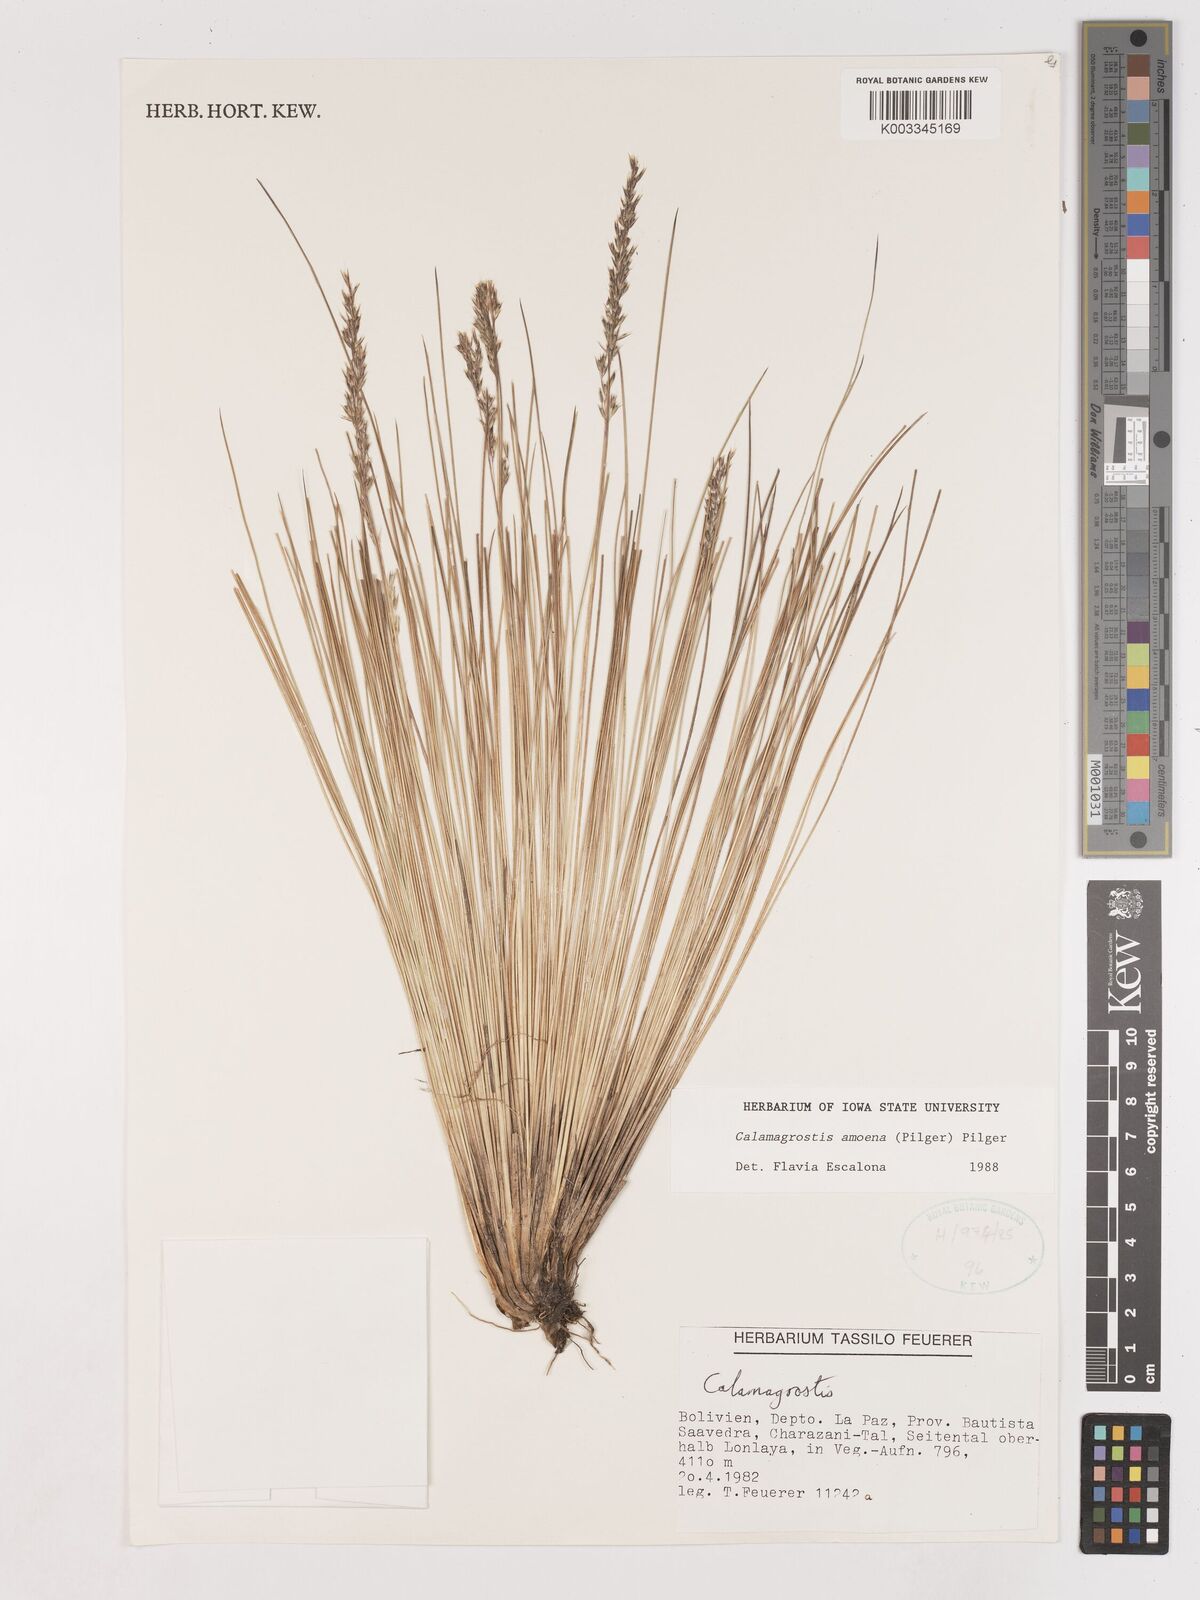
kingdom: Plantae
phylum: Tracheophyta
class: Liliopsida
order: Poales
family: Poaceae
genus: Calamagrostis
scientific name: Calamagrostis
